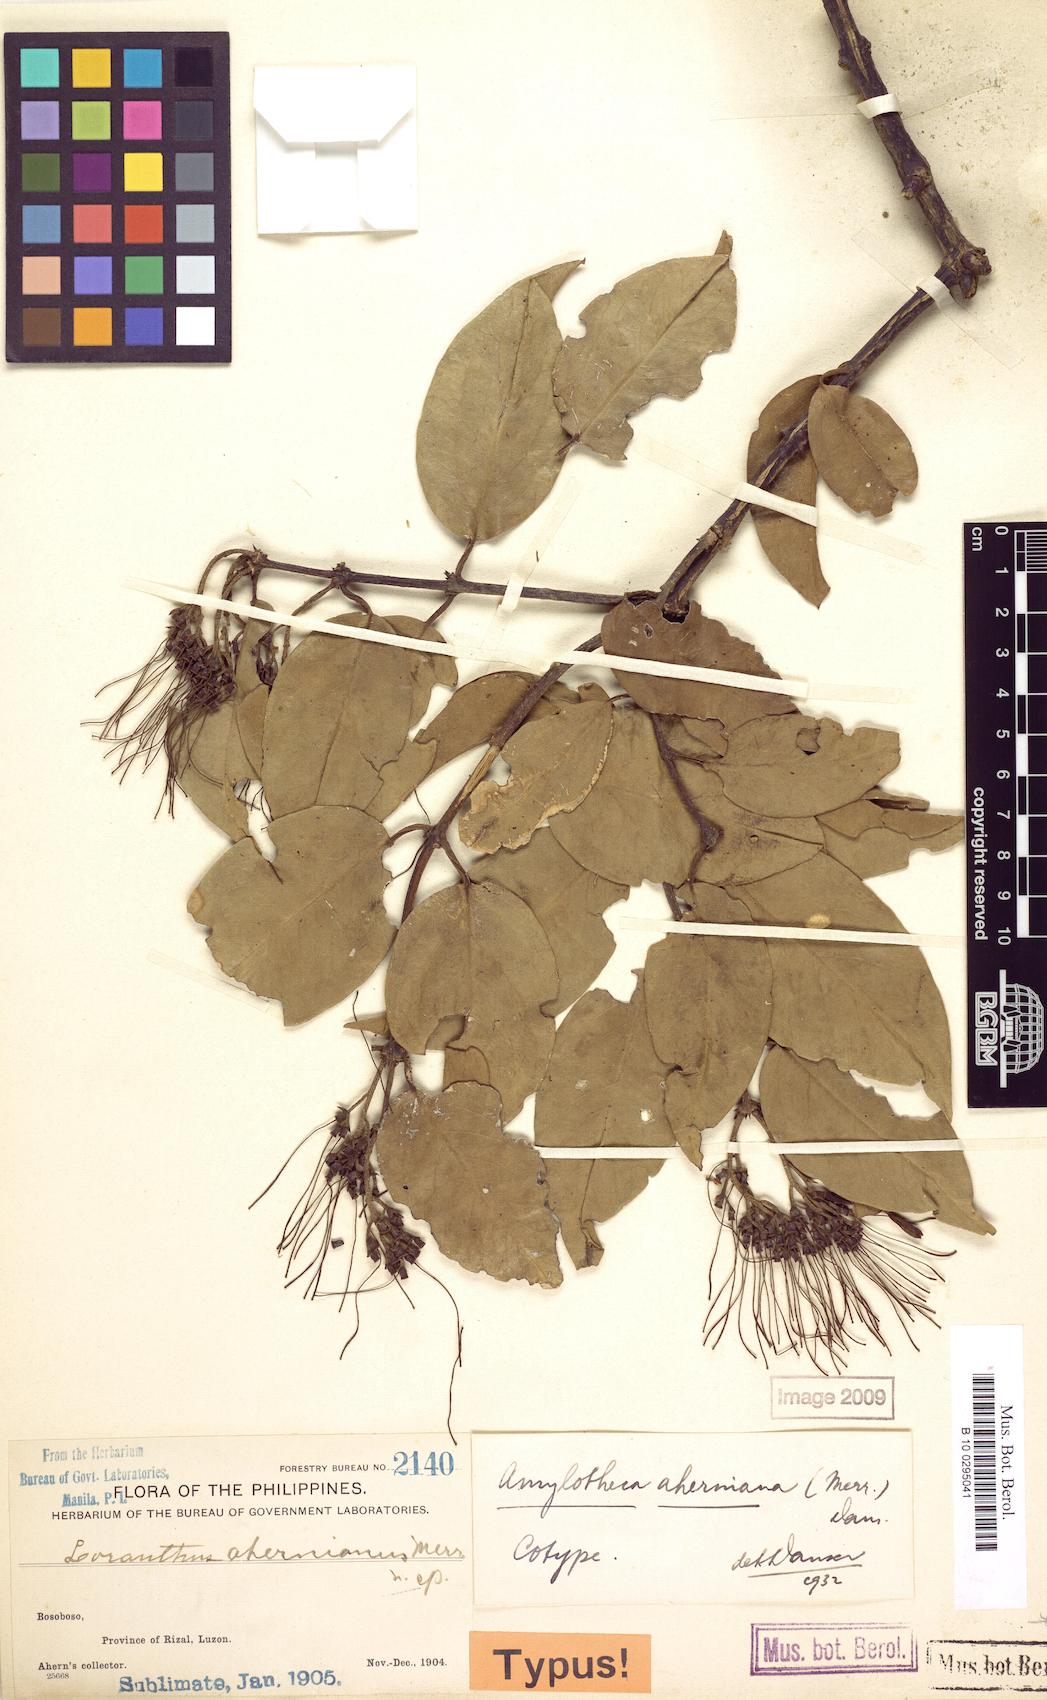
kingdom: Plantae
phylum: Tracheophyta
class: Magnoliopsida
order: Santalales
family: Loranthaceae
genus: Decaisnina
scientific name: Decaisnina aherniana
